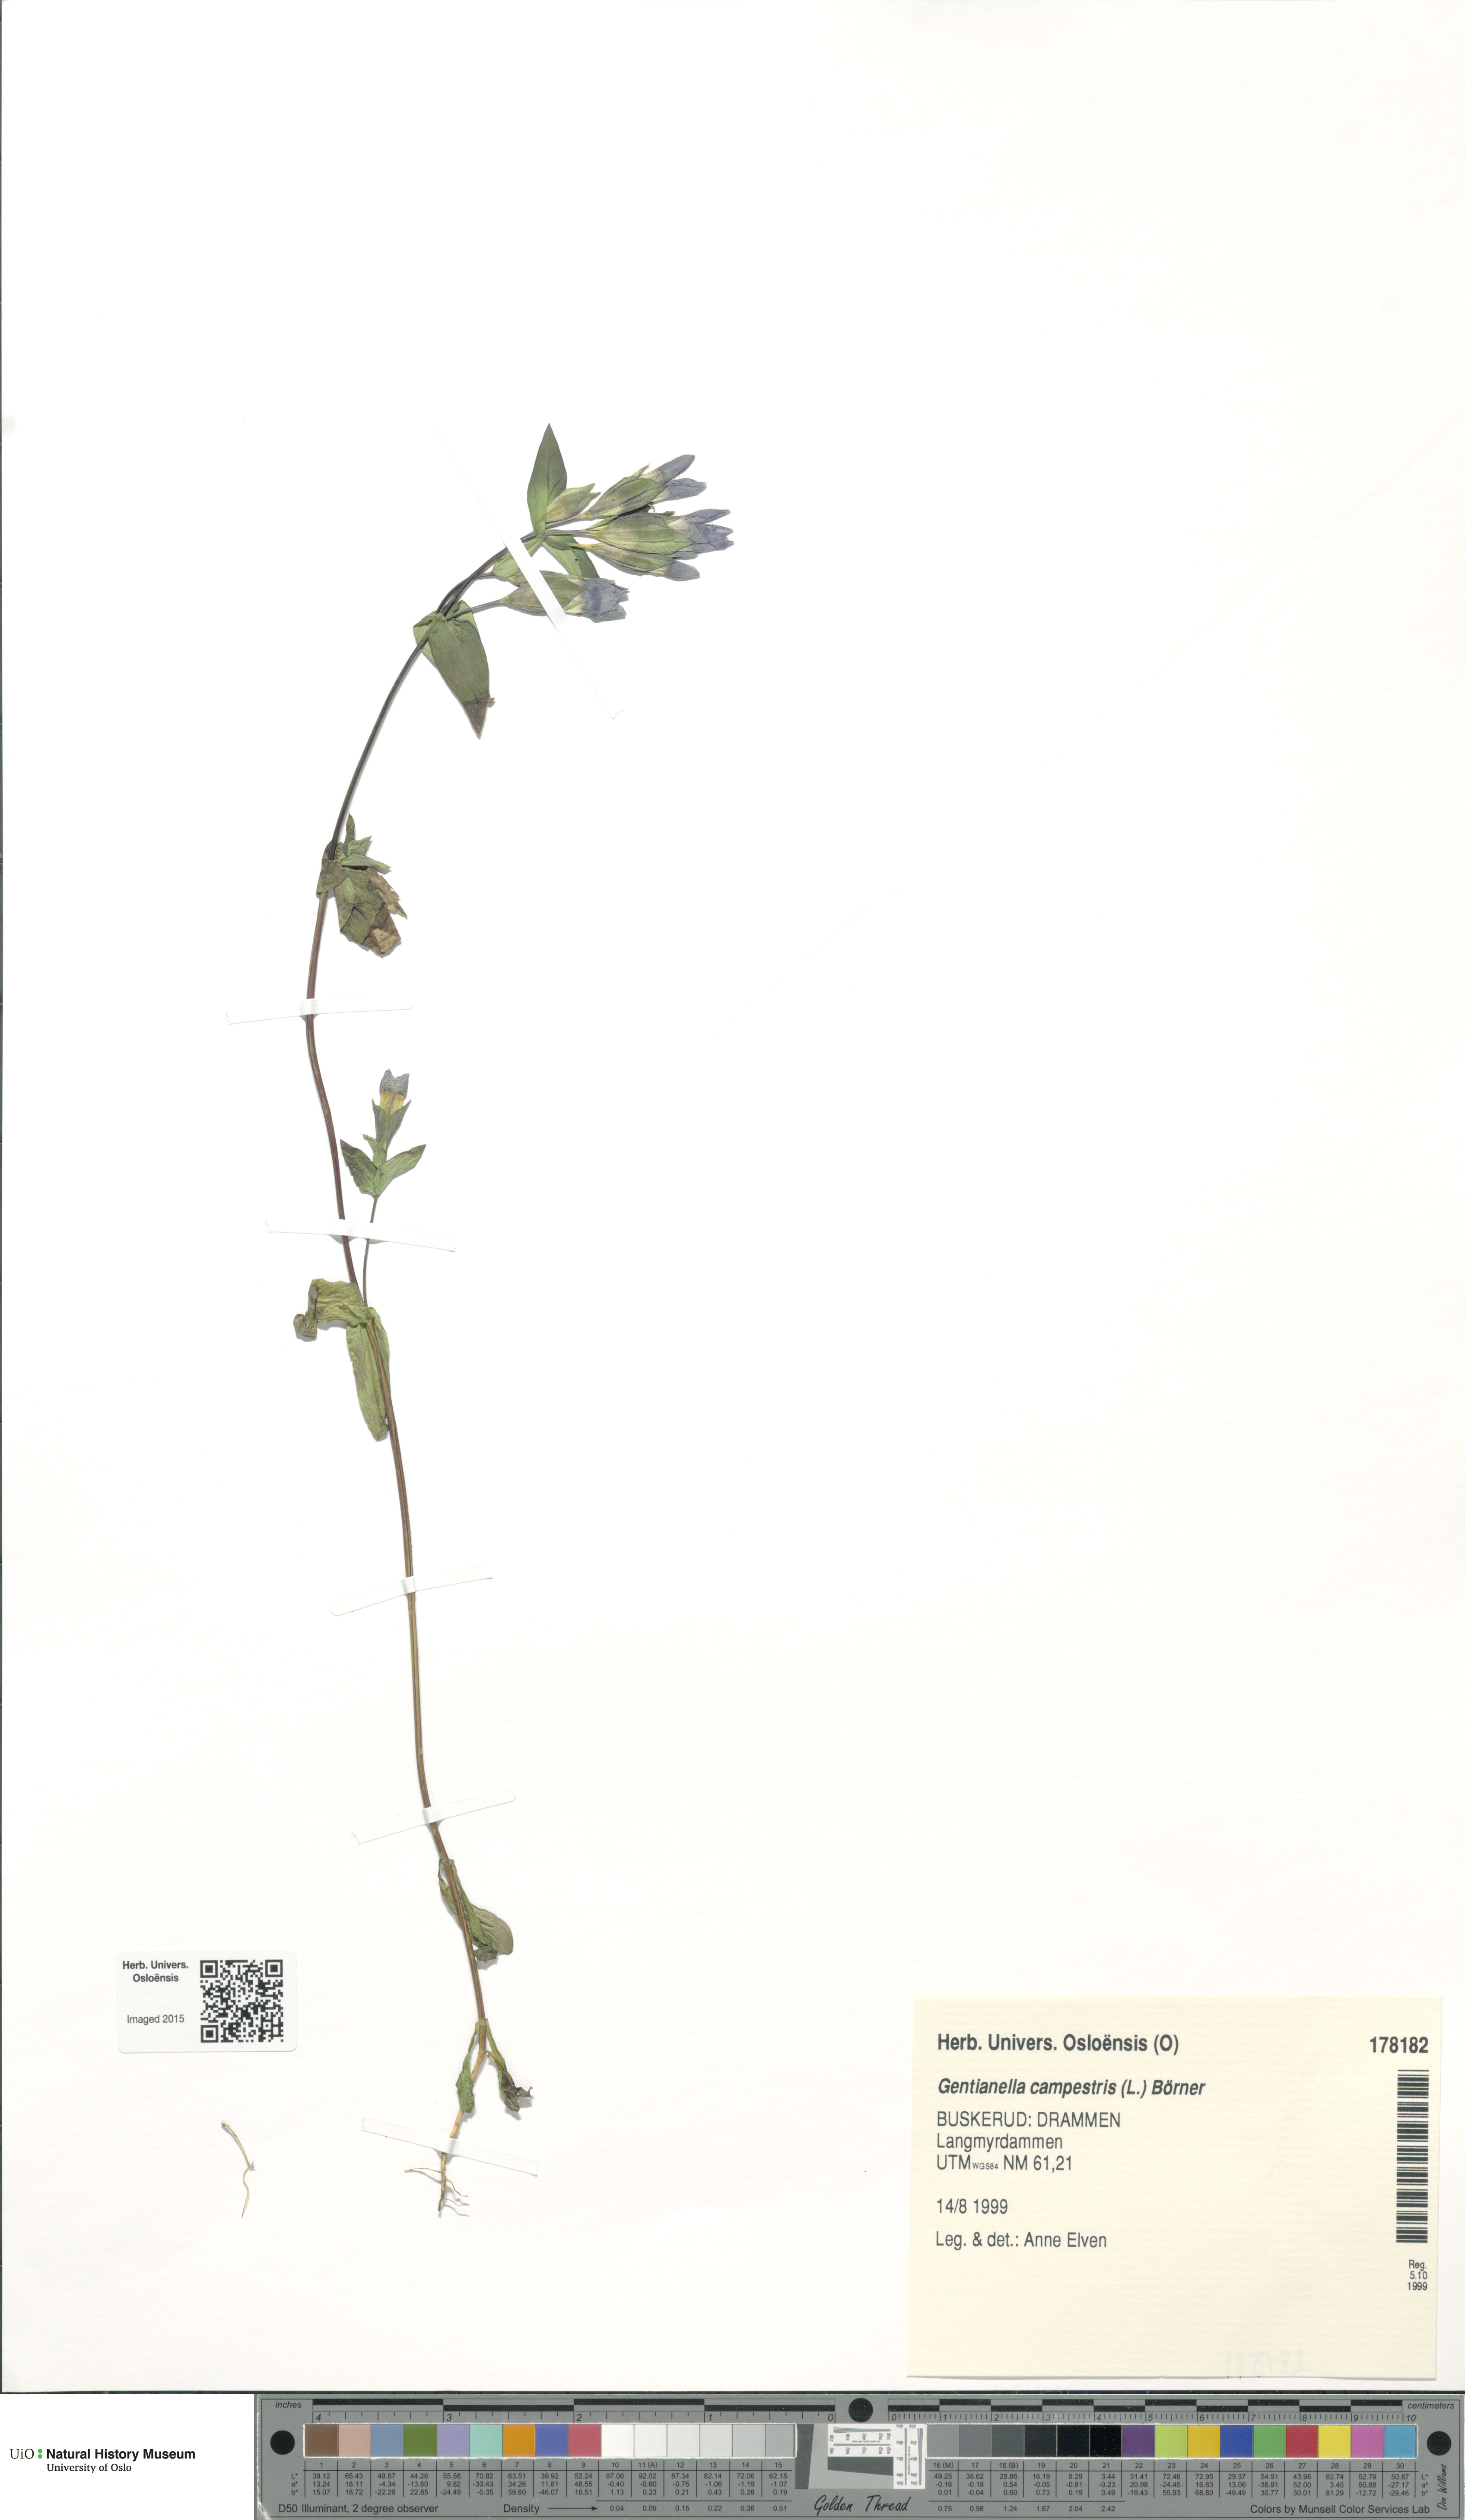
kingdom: Plantae
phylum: Tracheophyta
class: Magnoliopsida
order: Gentianales
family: Gentianaceae
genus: Gentianella
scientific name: Gentianella campestris
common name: Field gentian
